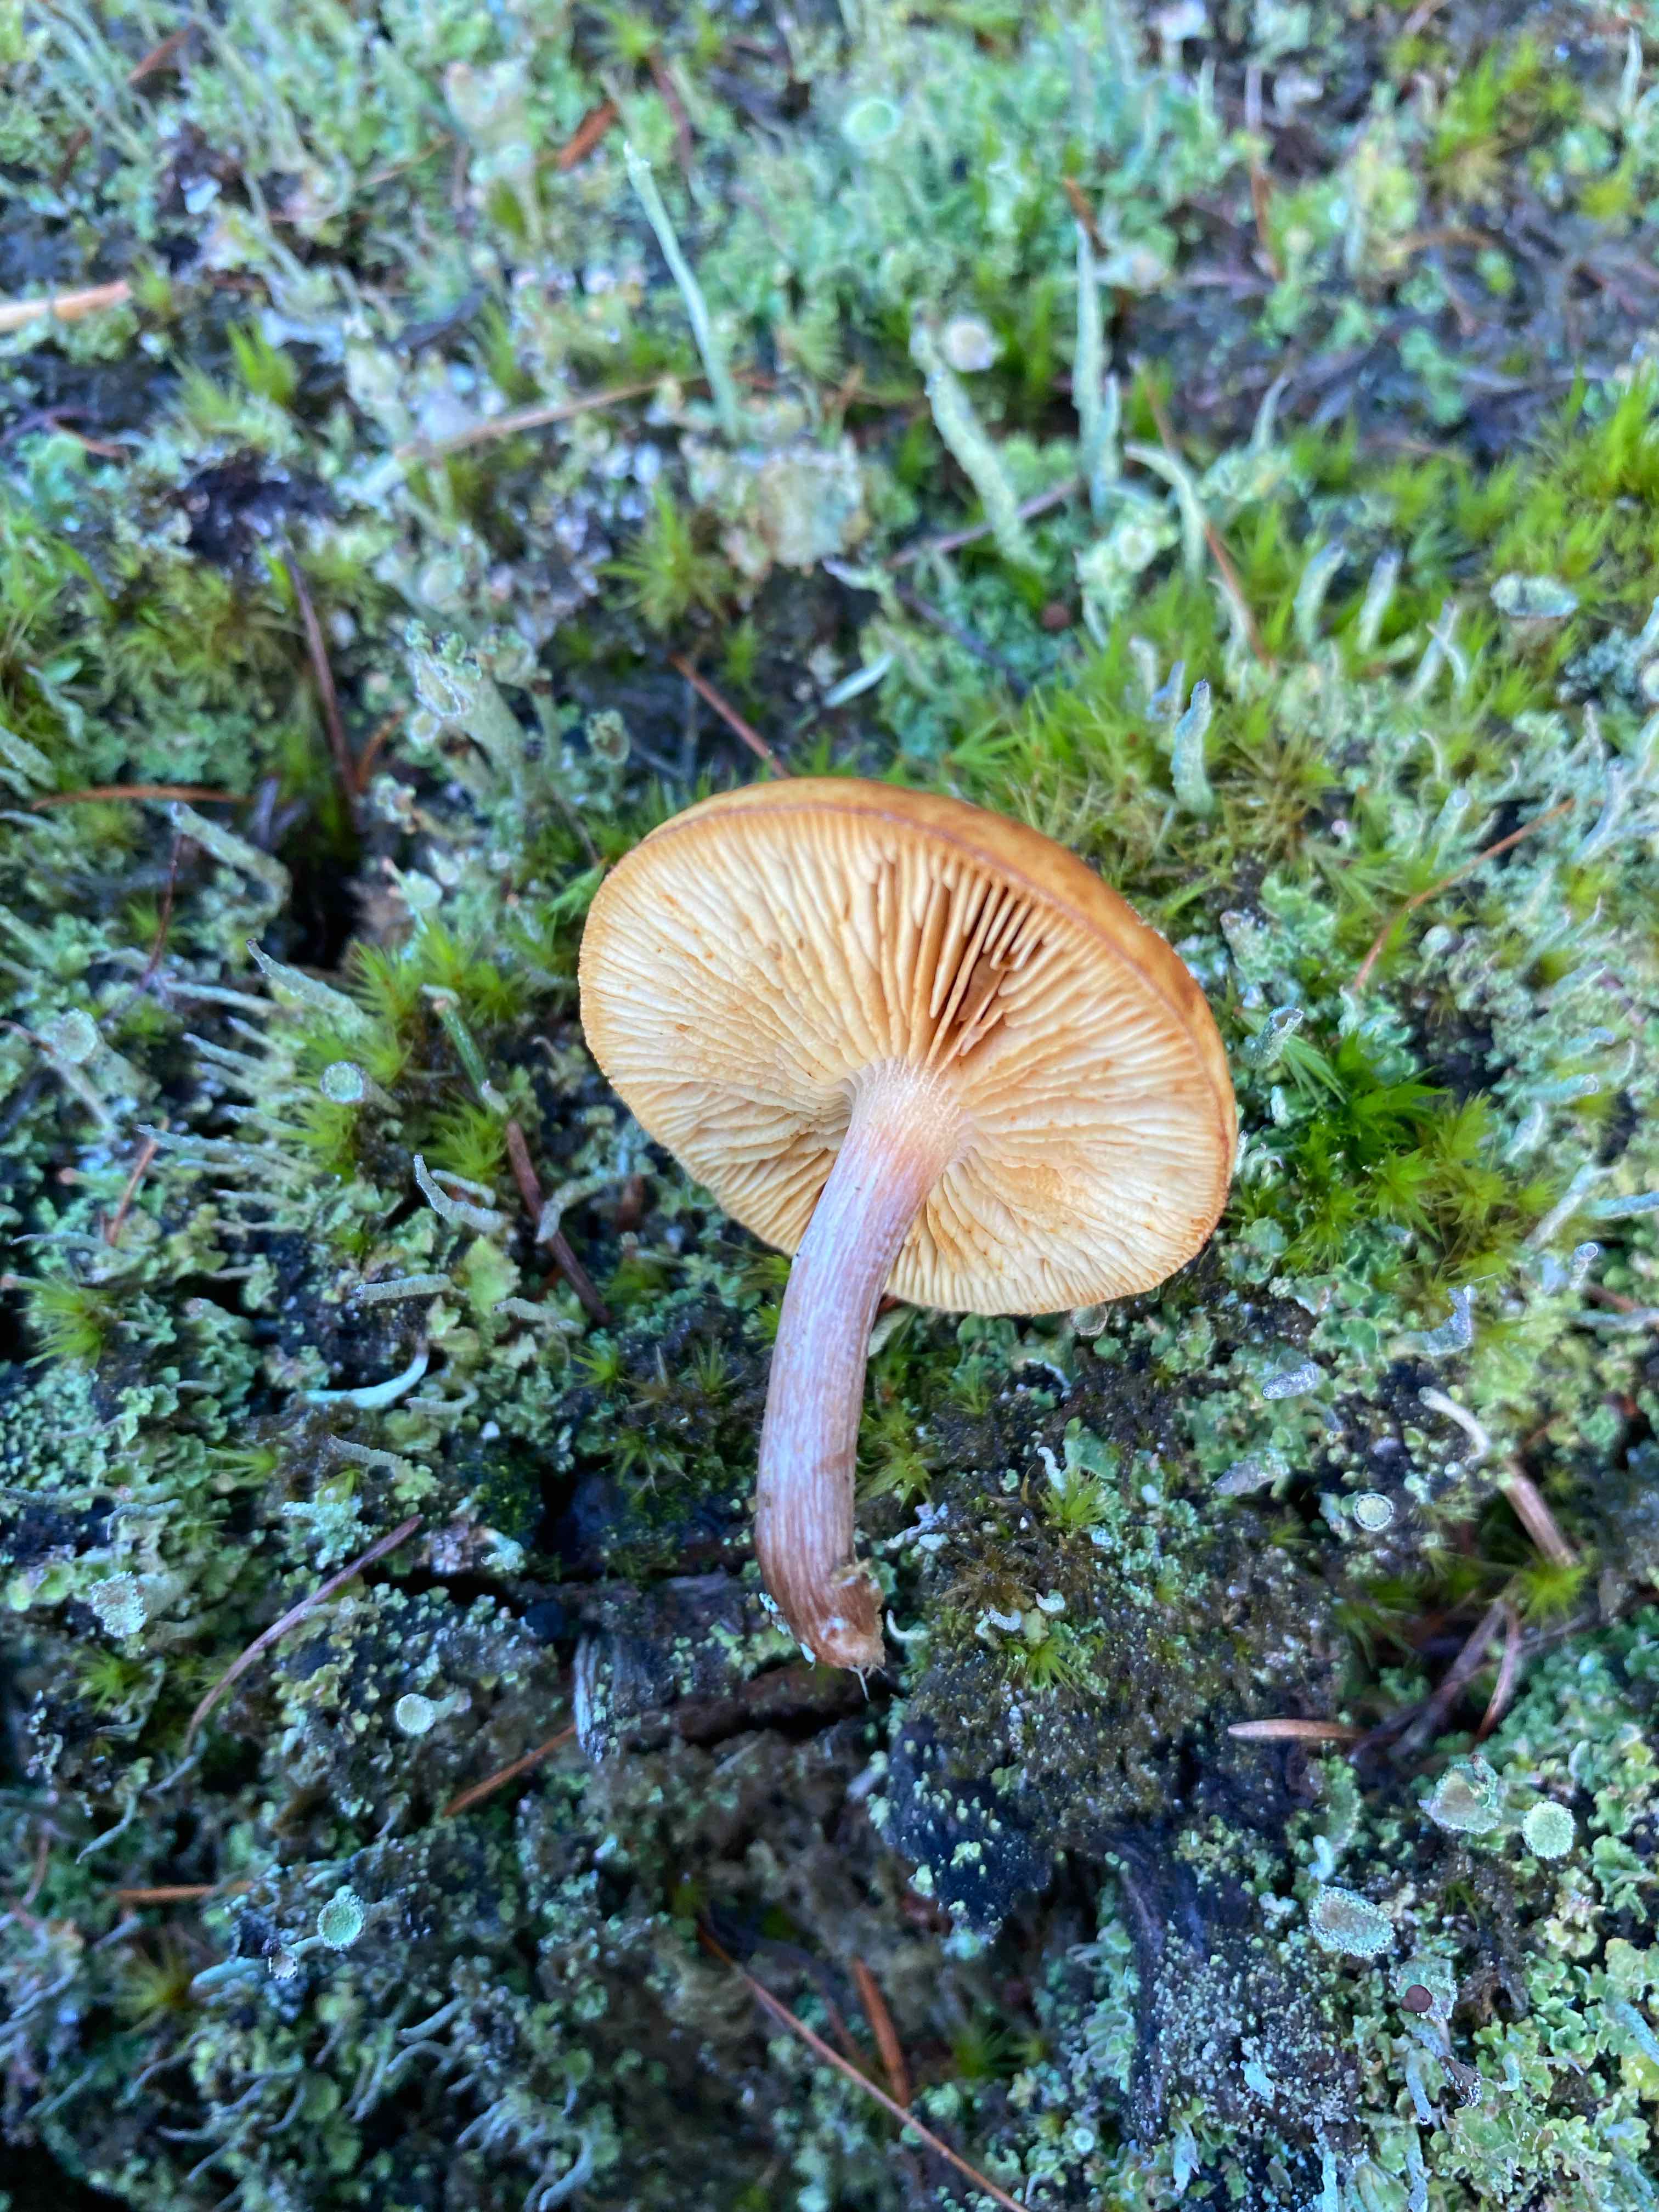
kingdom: Fungi
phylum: Basidiomycota
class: Agaricomycetes
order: Agaricales
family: Hymenogastraceae
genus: Gymnopilus
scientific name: Gymnopilus penetrans
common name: plettet flammehat
